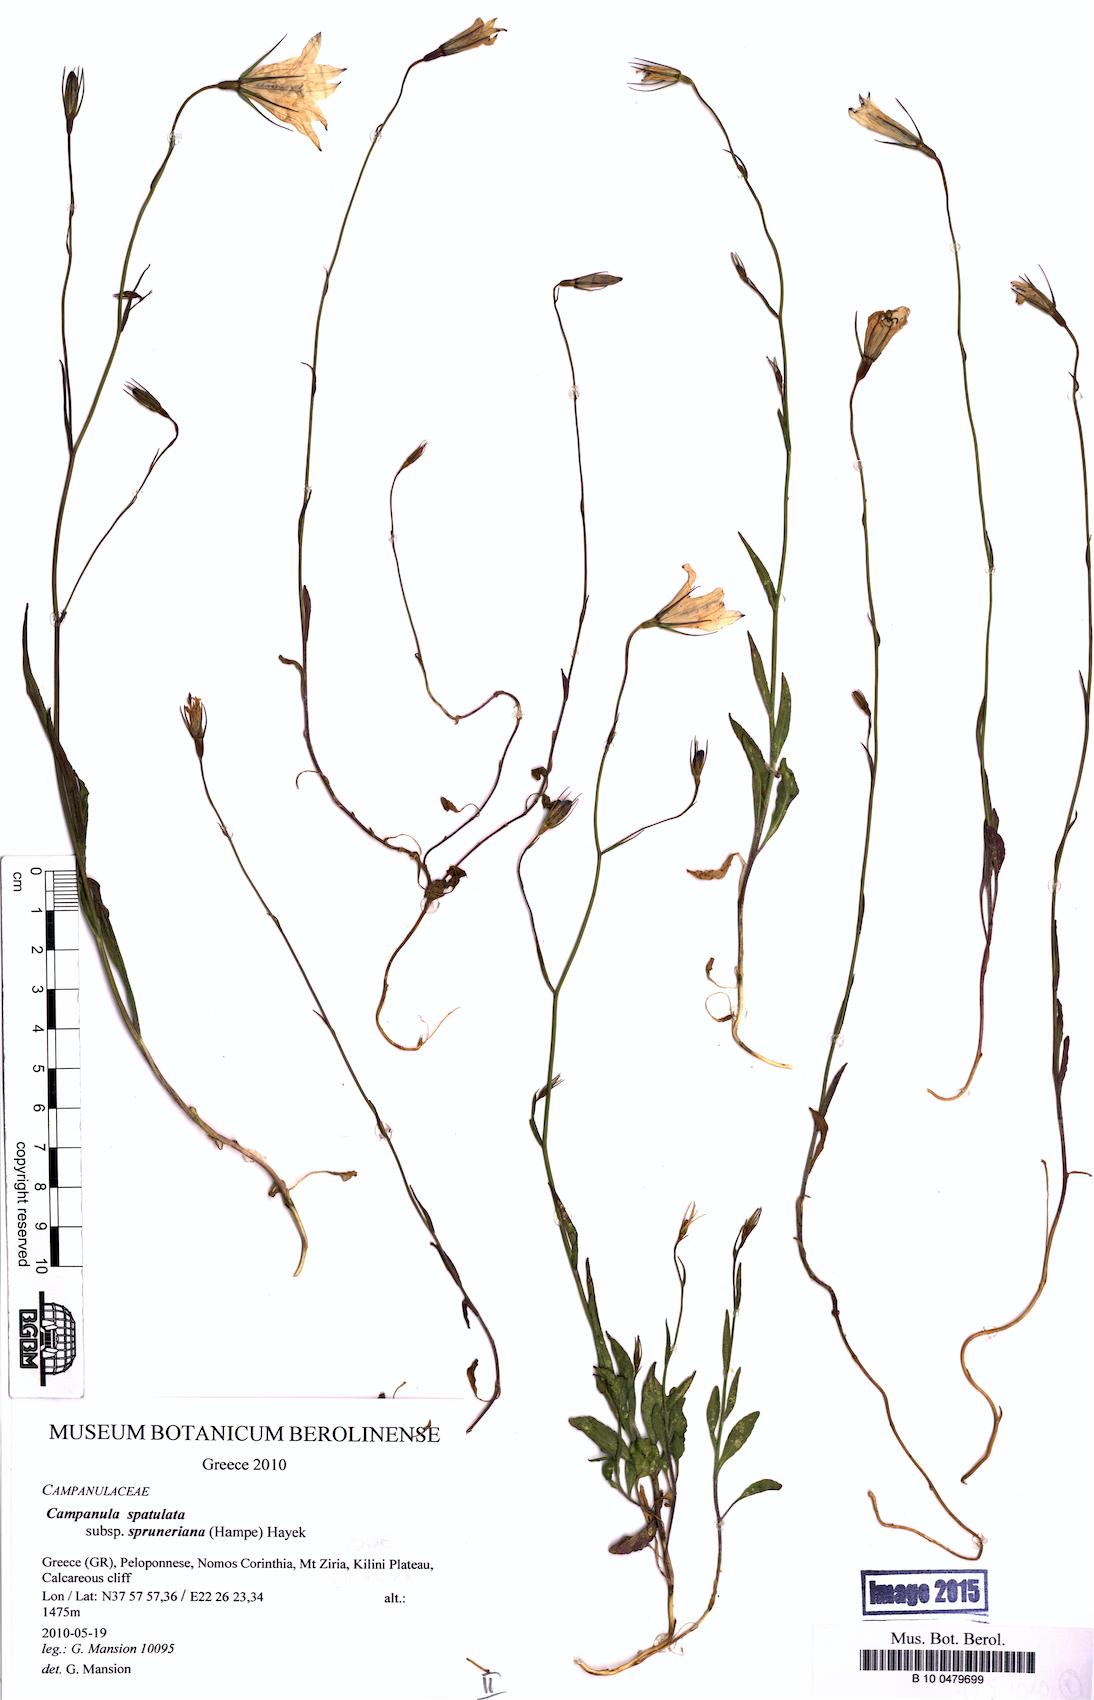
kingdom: Plantae
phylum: Tracheophyta
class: Magnoliopsida
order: Asterales
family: Campanulaceae
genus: Campanula
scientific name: Campanula spatulata
